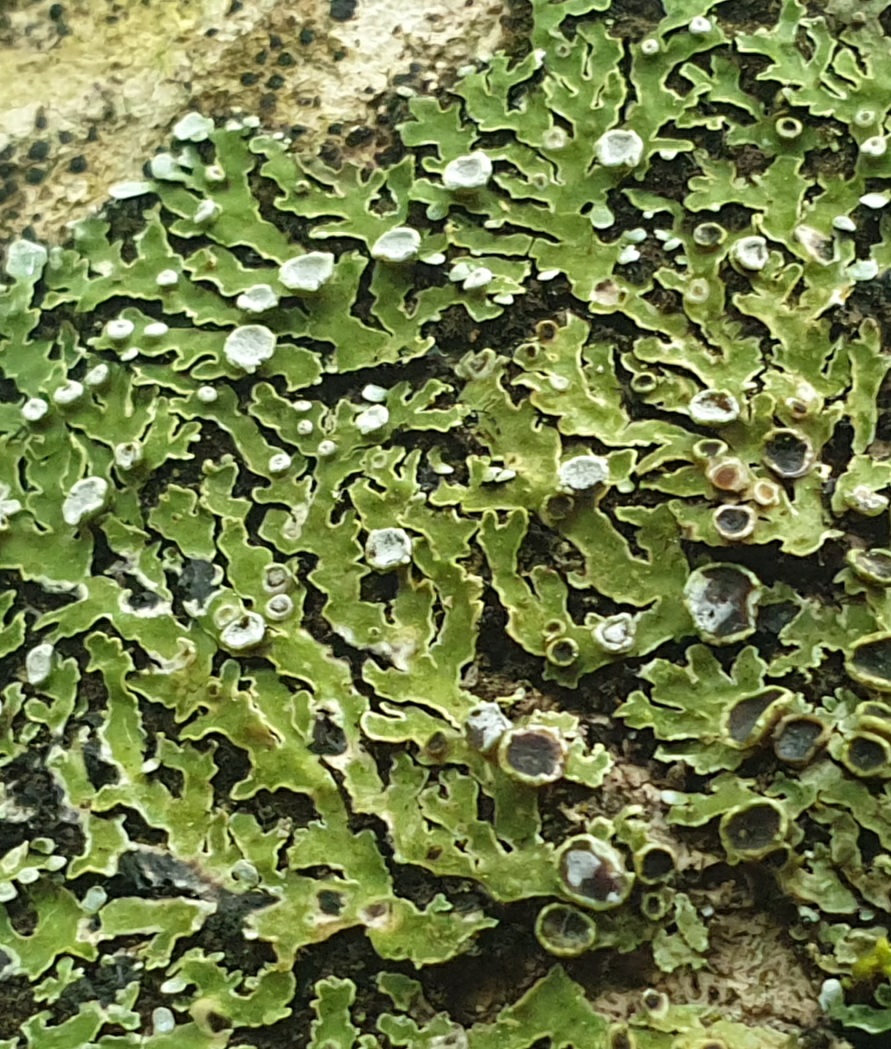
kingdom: Fungi
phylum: Ascomycota
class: Lecanoromycetes
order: Caliciales
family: Physciaceae
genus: Physconia
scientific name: Physconia distorta
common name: pudret dugrosetlav
